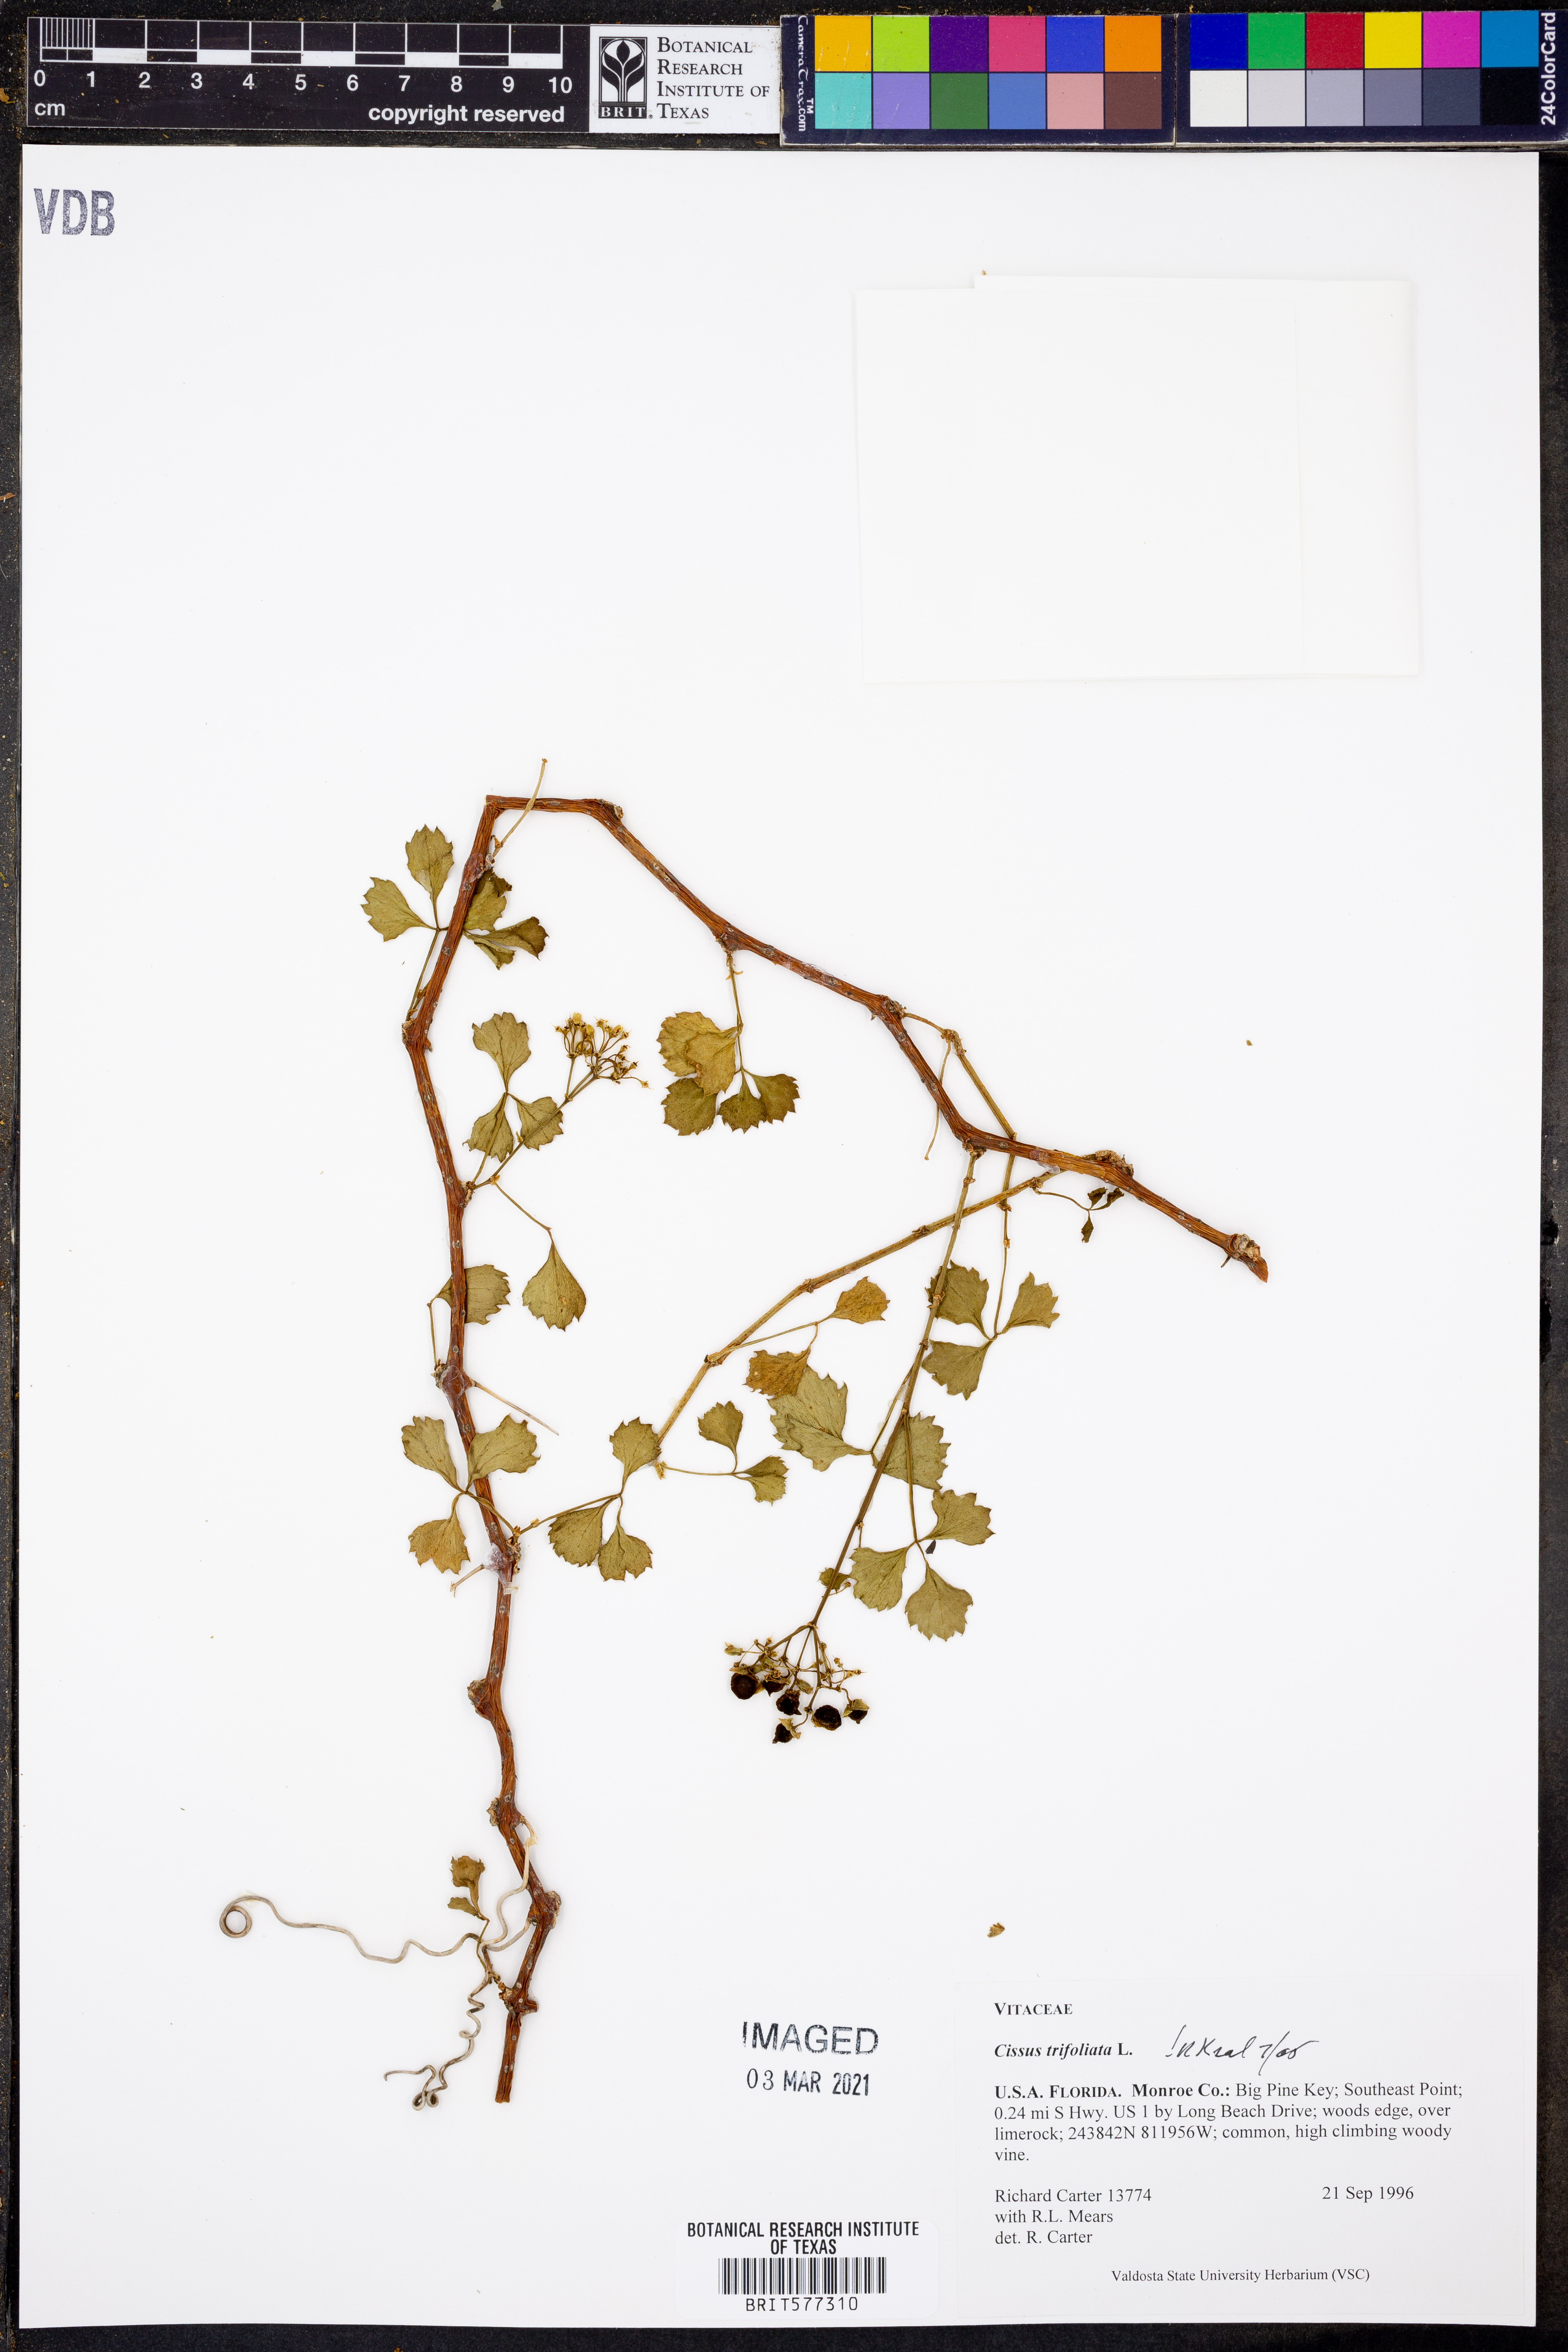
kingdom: Plantae
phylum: Tracheophyta
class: Magnoliopsida
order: Vitales
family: Vitaceae
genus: Cissus
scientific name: Cissus trifoliata
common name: Vine-sorrel
